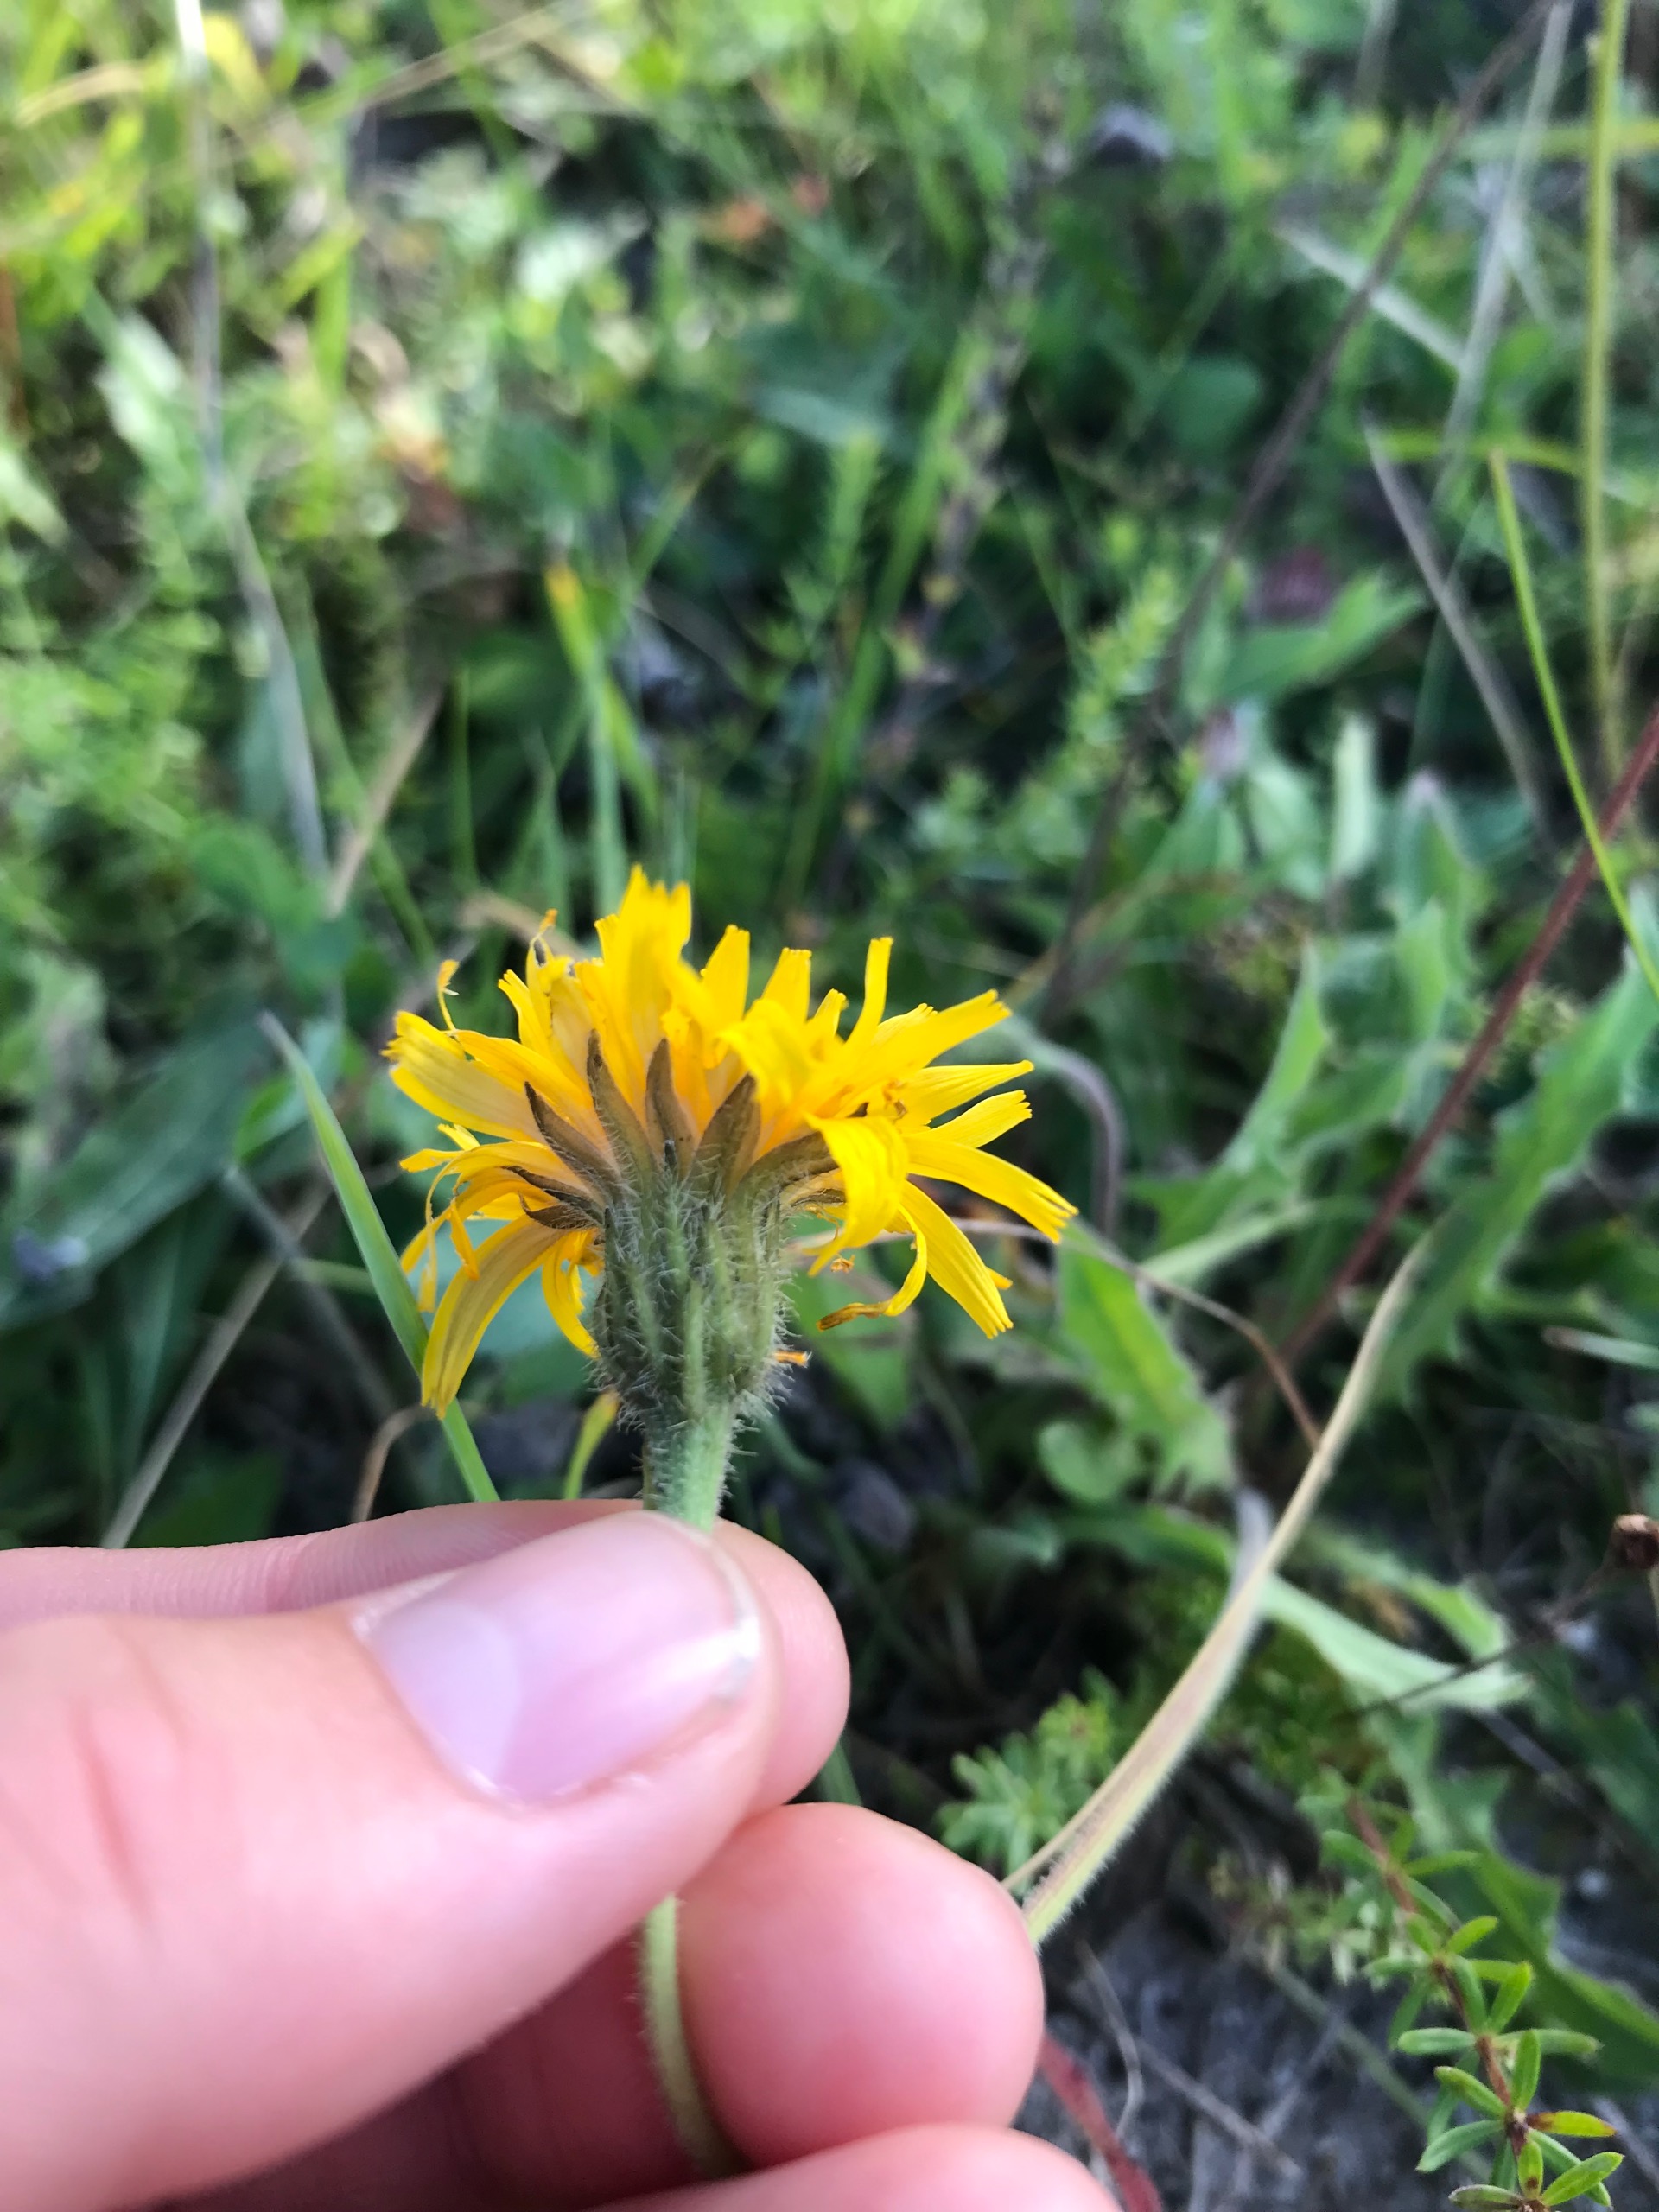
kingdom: Plantae
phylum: Tracheophyta
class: Magnoliopsida
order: Asterales
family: Asteraceae
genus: Leontodon
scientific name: Leontodon hispidus
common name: Stivhåret borst
